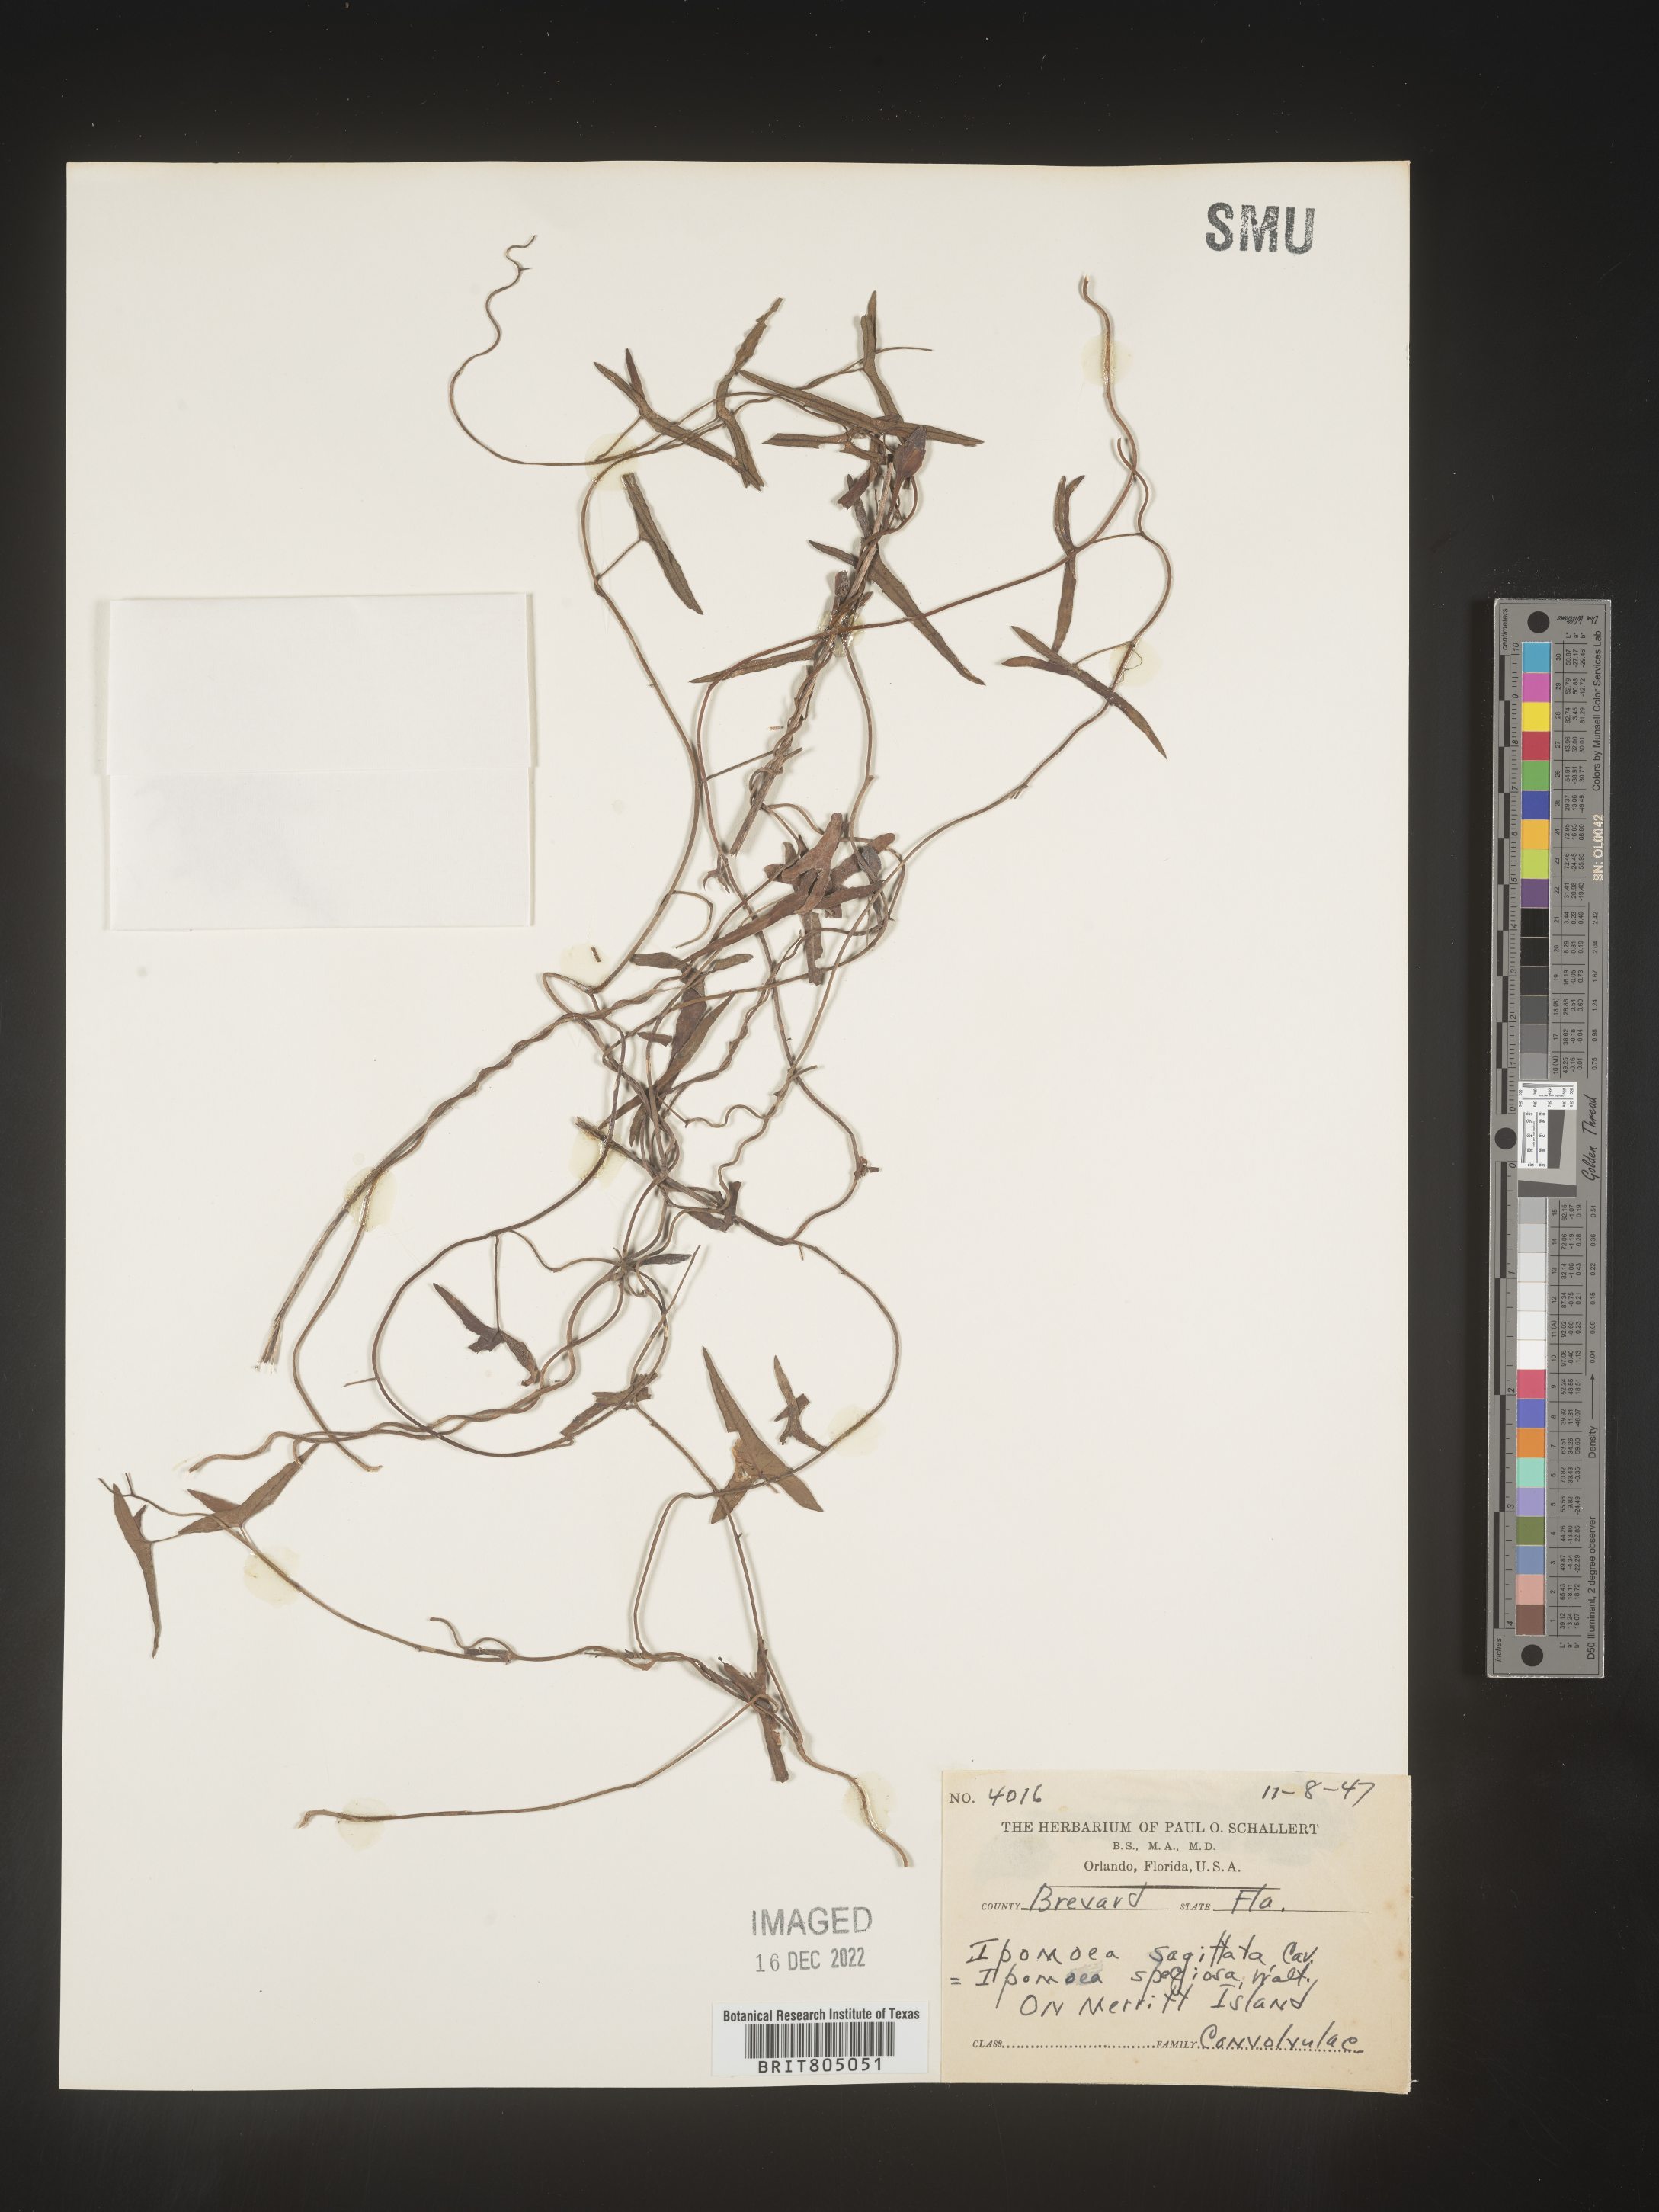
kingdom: Plantae
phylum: Tracheophyta
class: Magnoliopsida
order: Solanales
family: Convolvulaceae
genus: Ipomoea
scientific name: Ipomoea sinensis
